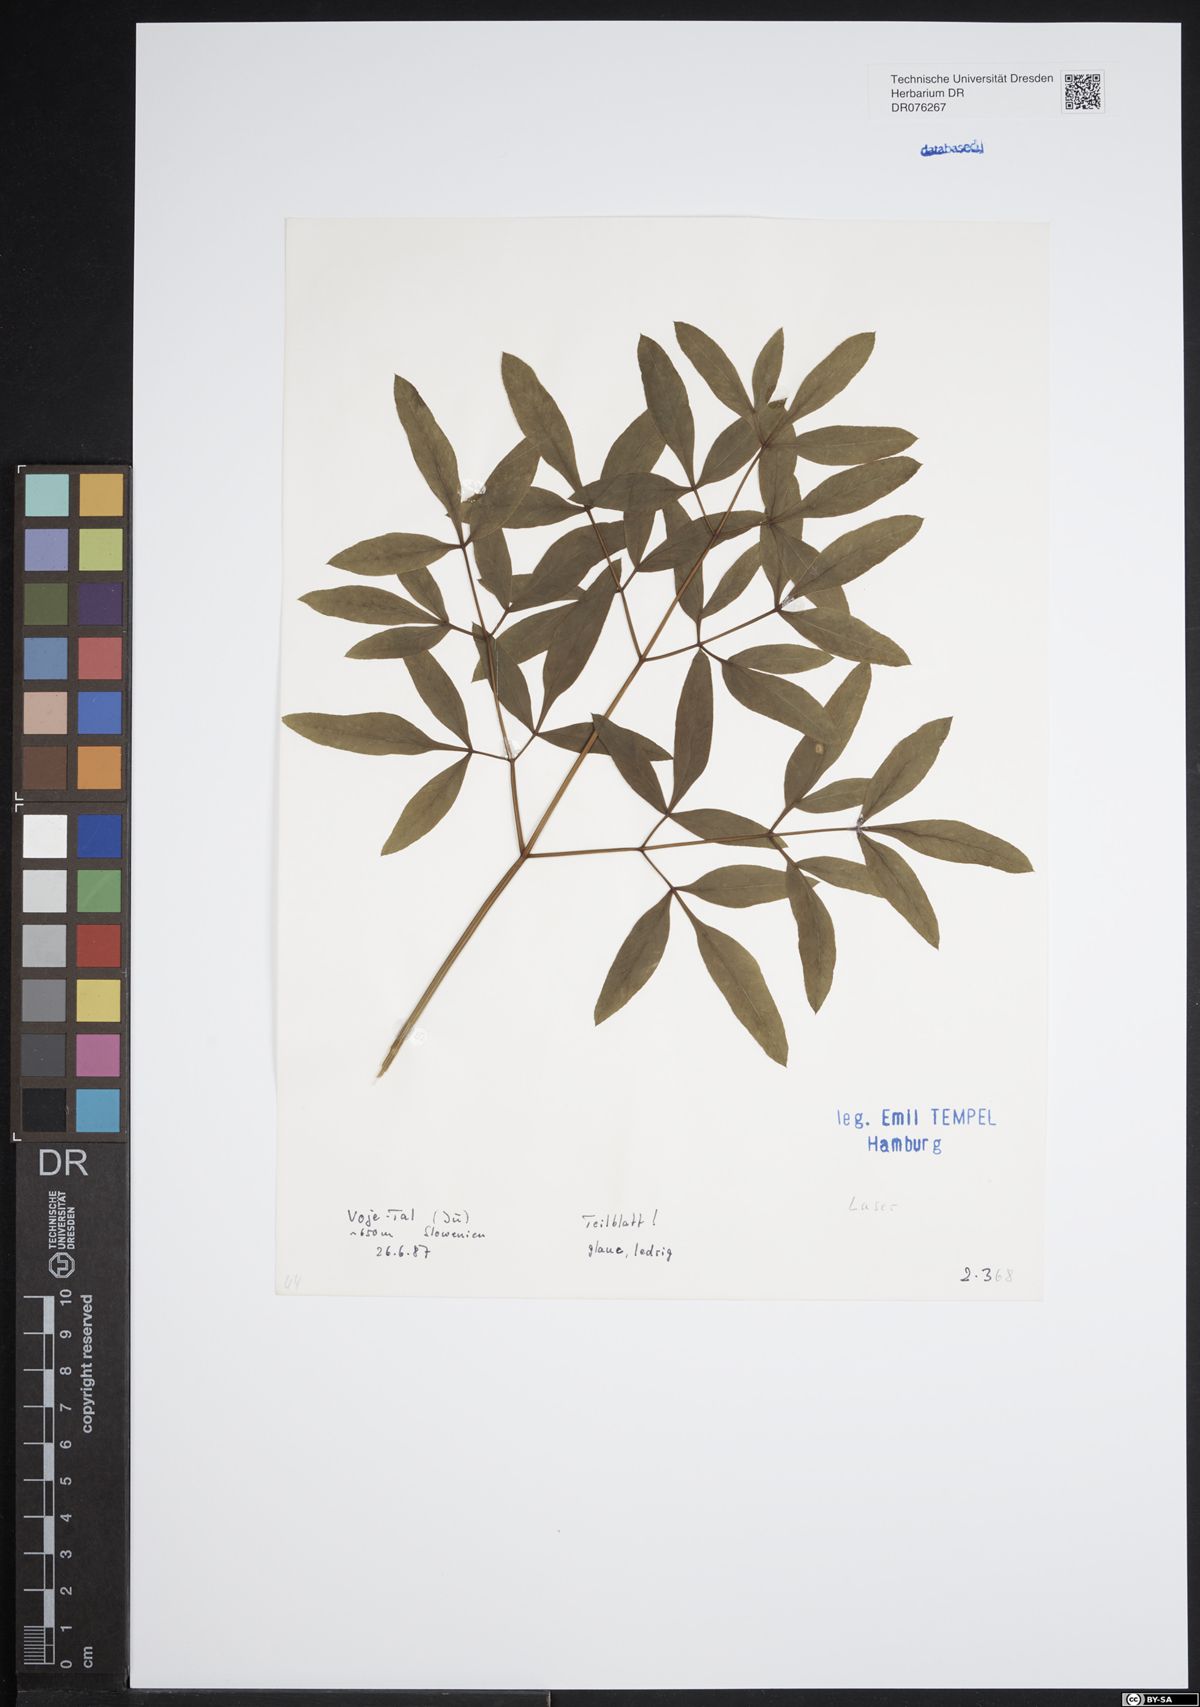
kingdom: Plantae
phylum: Tracheophyta
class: Magnoliopsida
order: Apiales
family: Apiaceae
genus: Laser
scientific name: Laser
